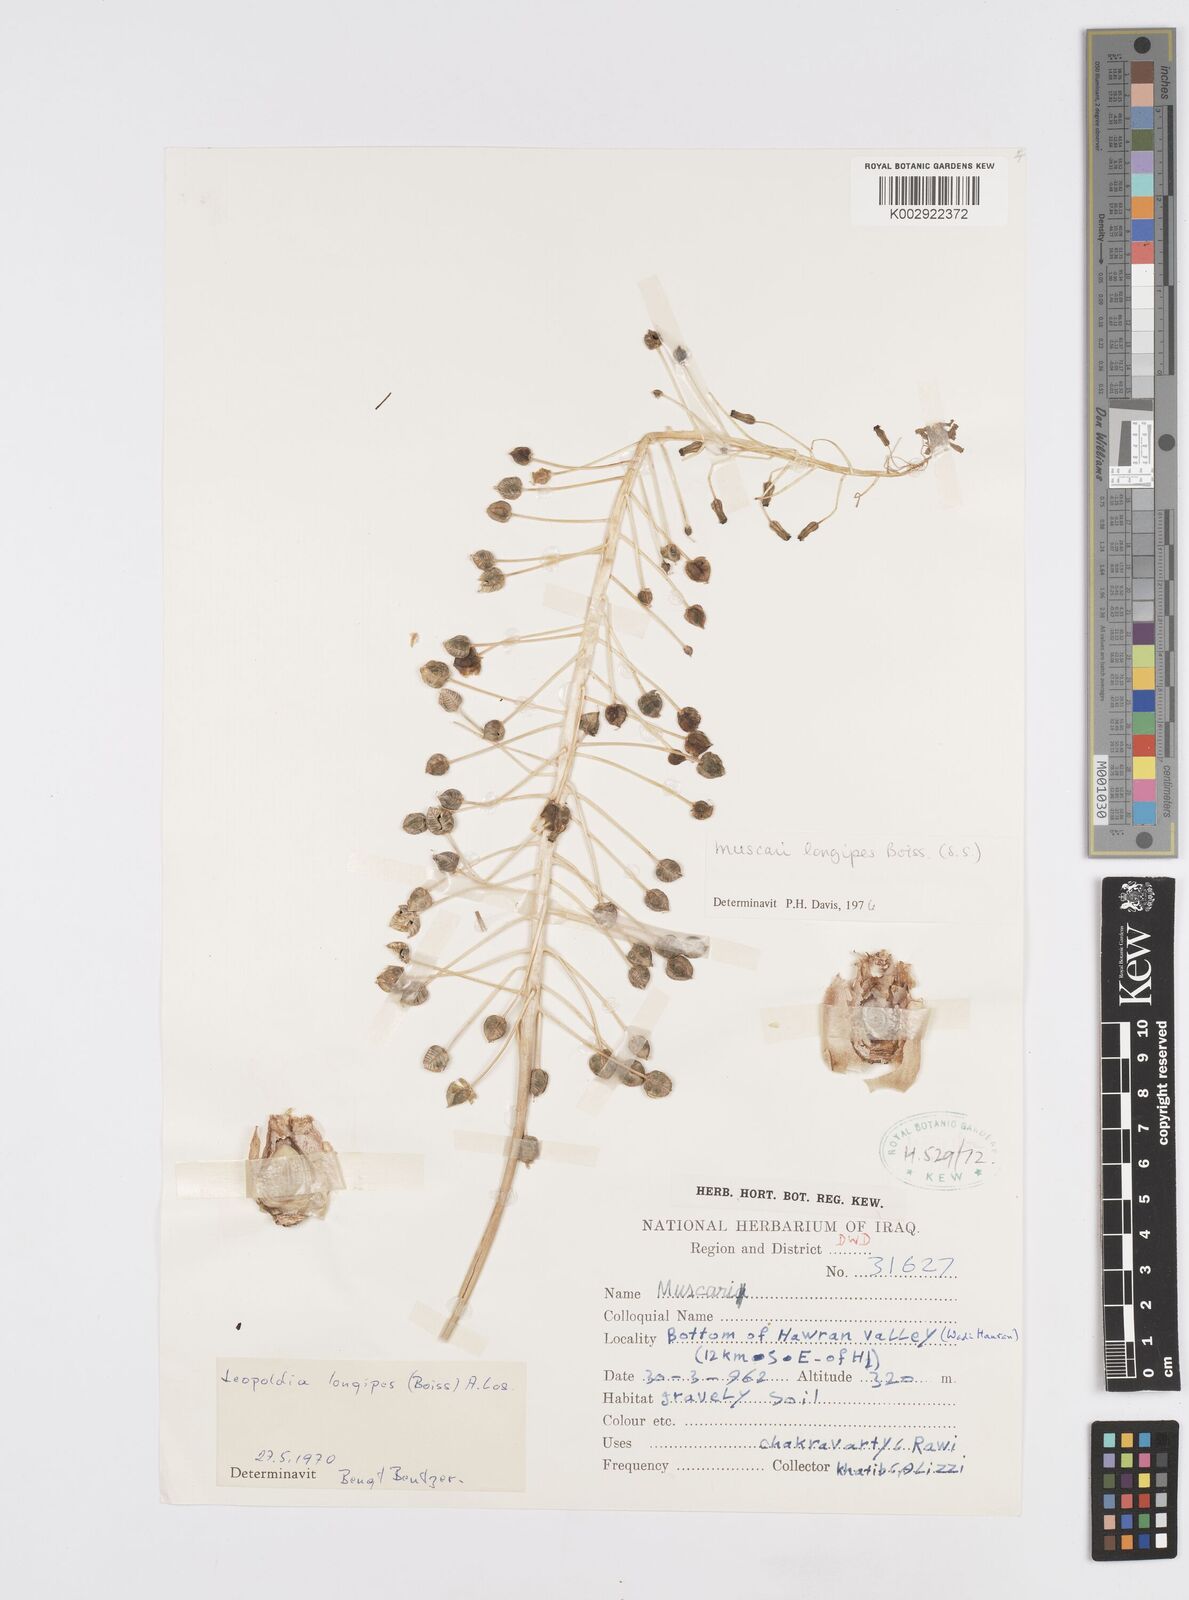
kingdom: Plantae
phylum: Tracheophyta
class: Liliopsida
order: Asparagales
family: Asparagaceae
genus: Muscari
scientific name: Muscari longipes
